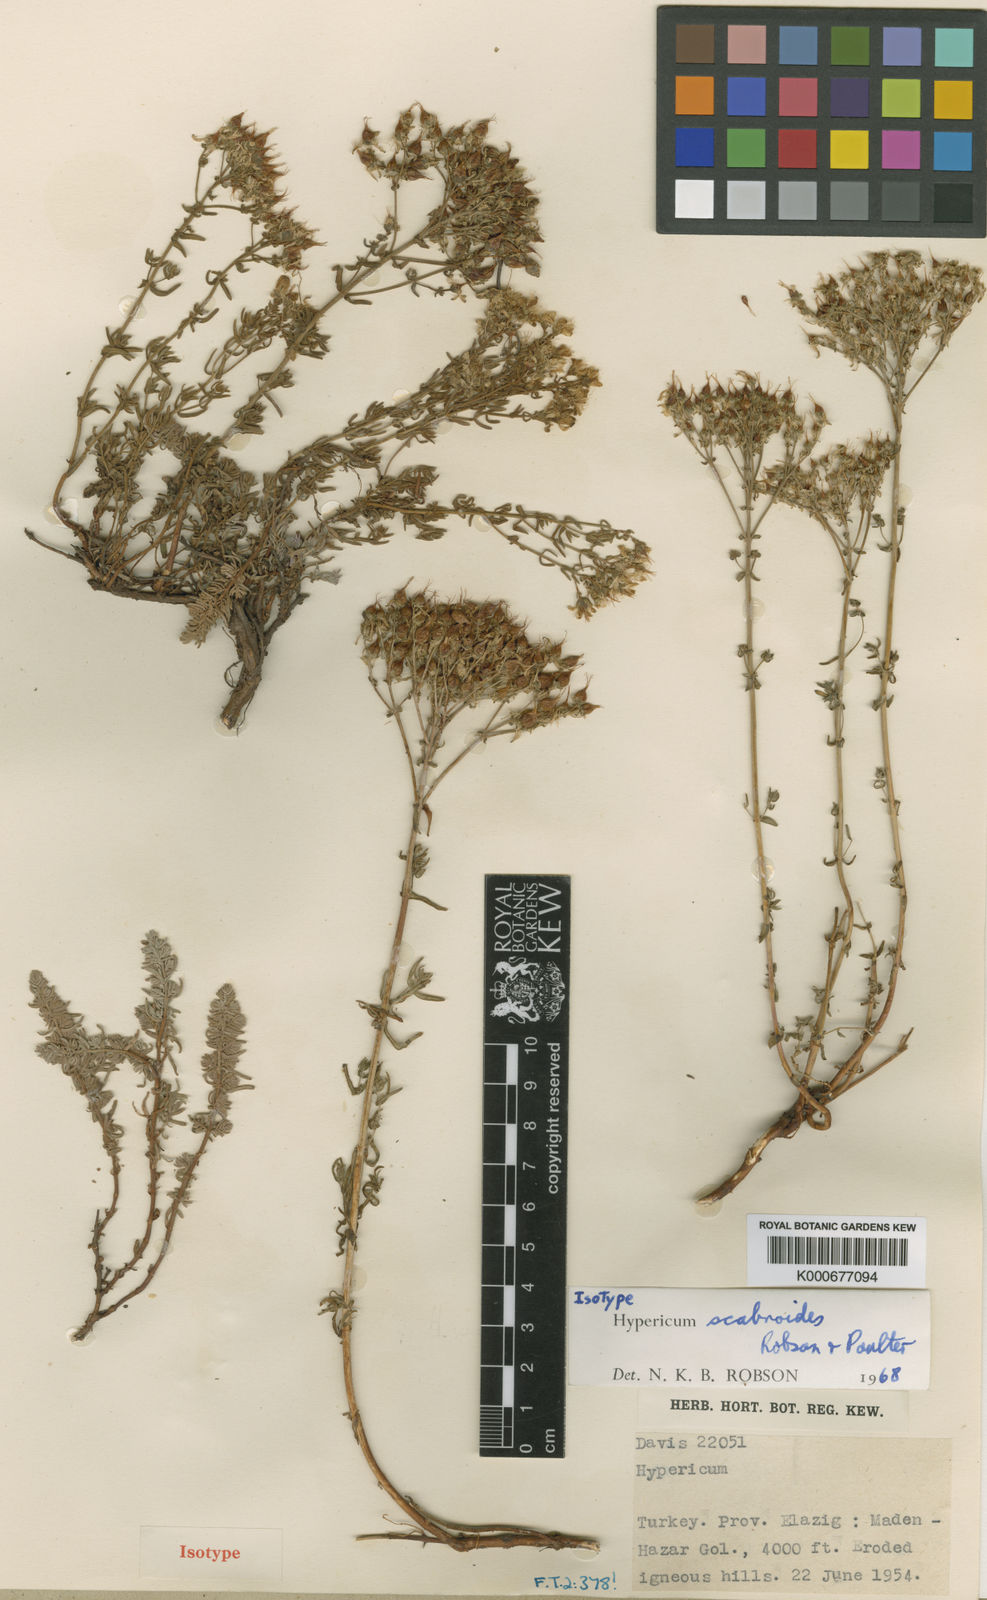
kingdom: Plantae
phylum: Tracheophyta
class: Magnoliopsida
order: Malpighiales
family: Hypericaceae
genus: Hypericum
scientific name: Hypericum scabroides
